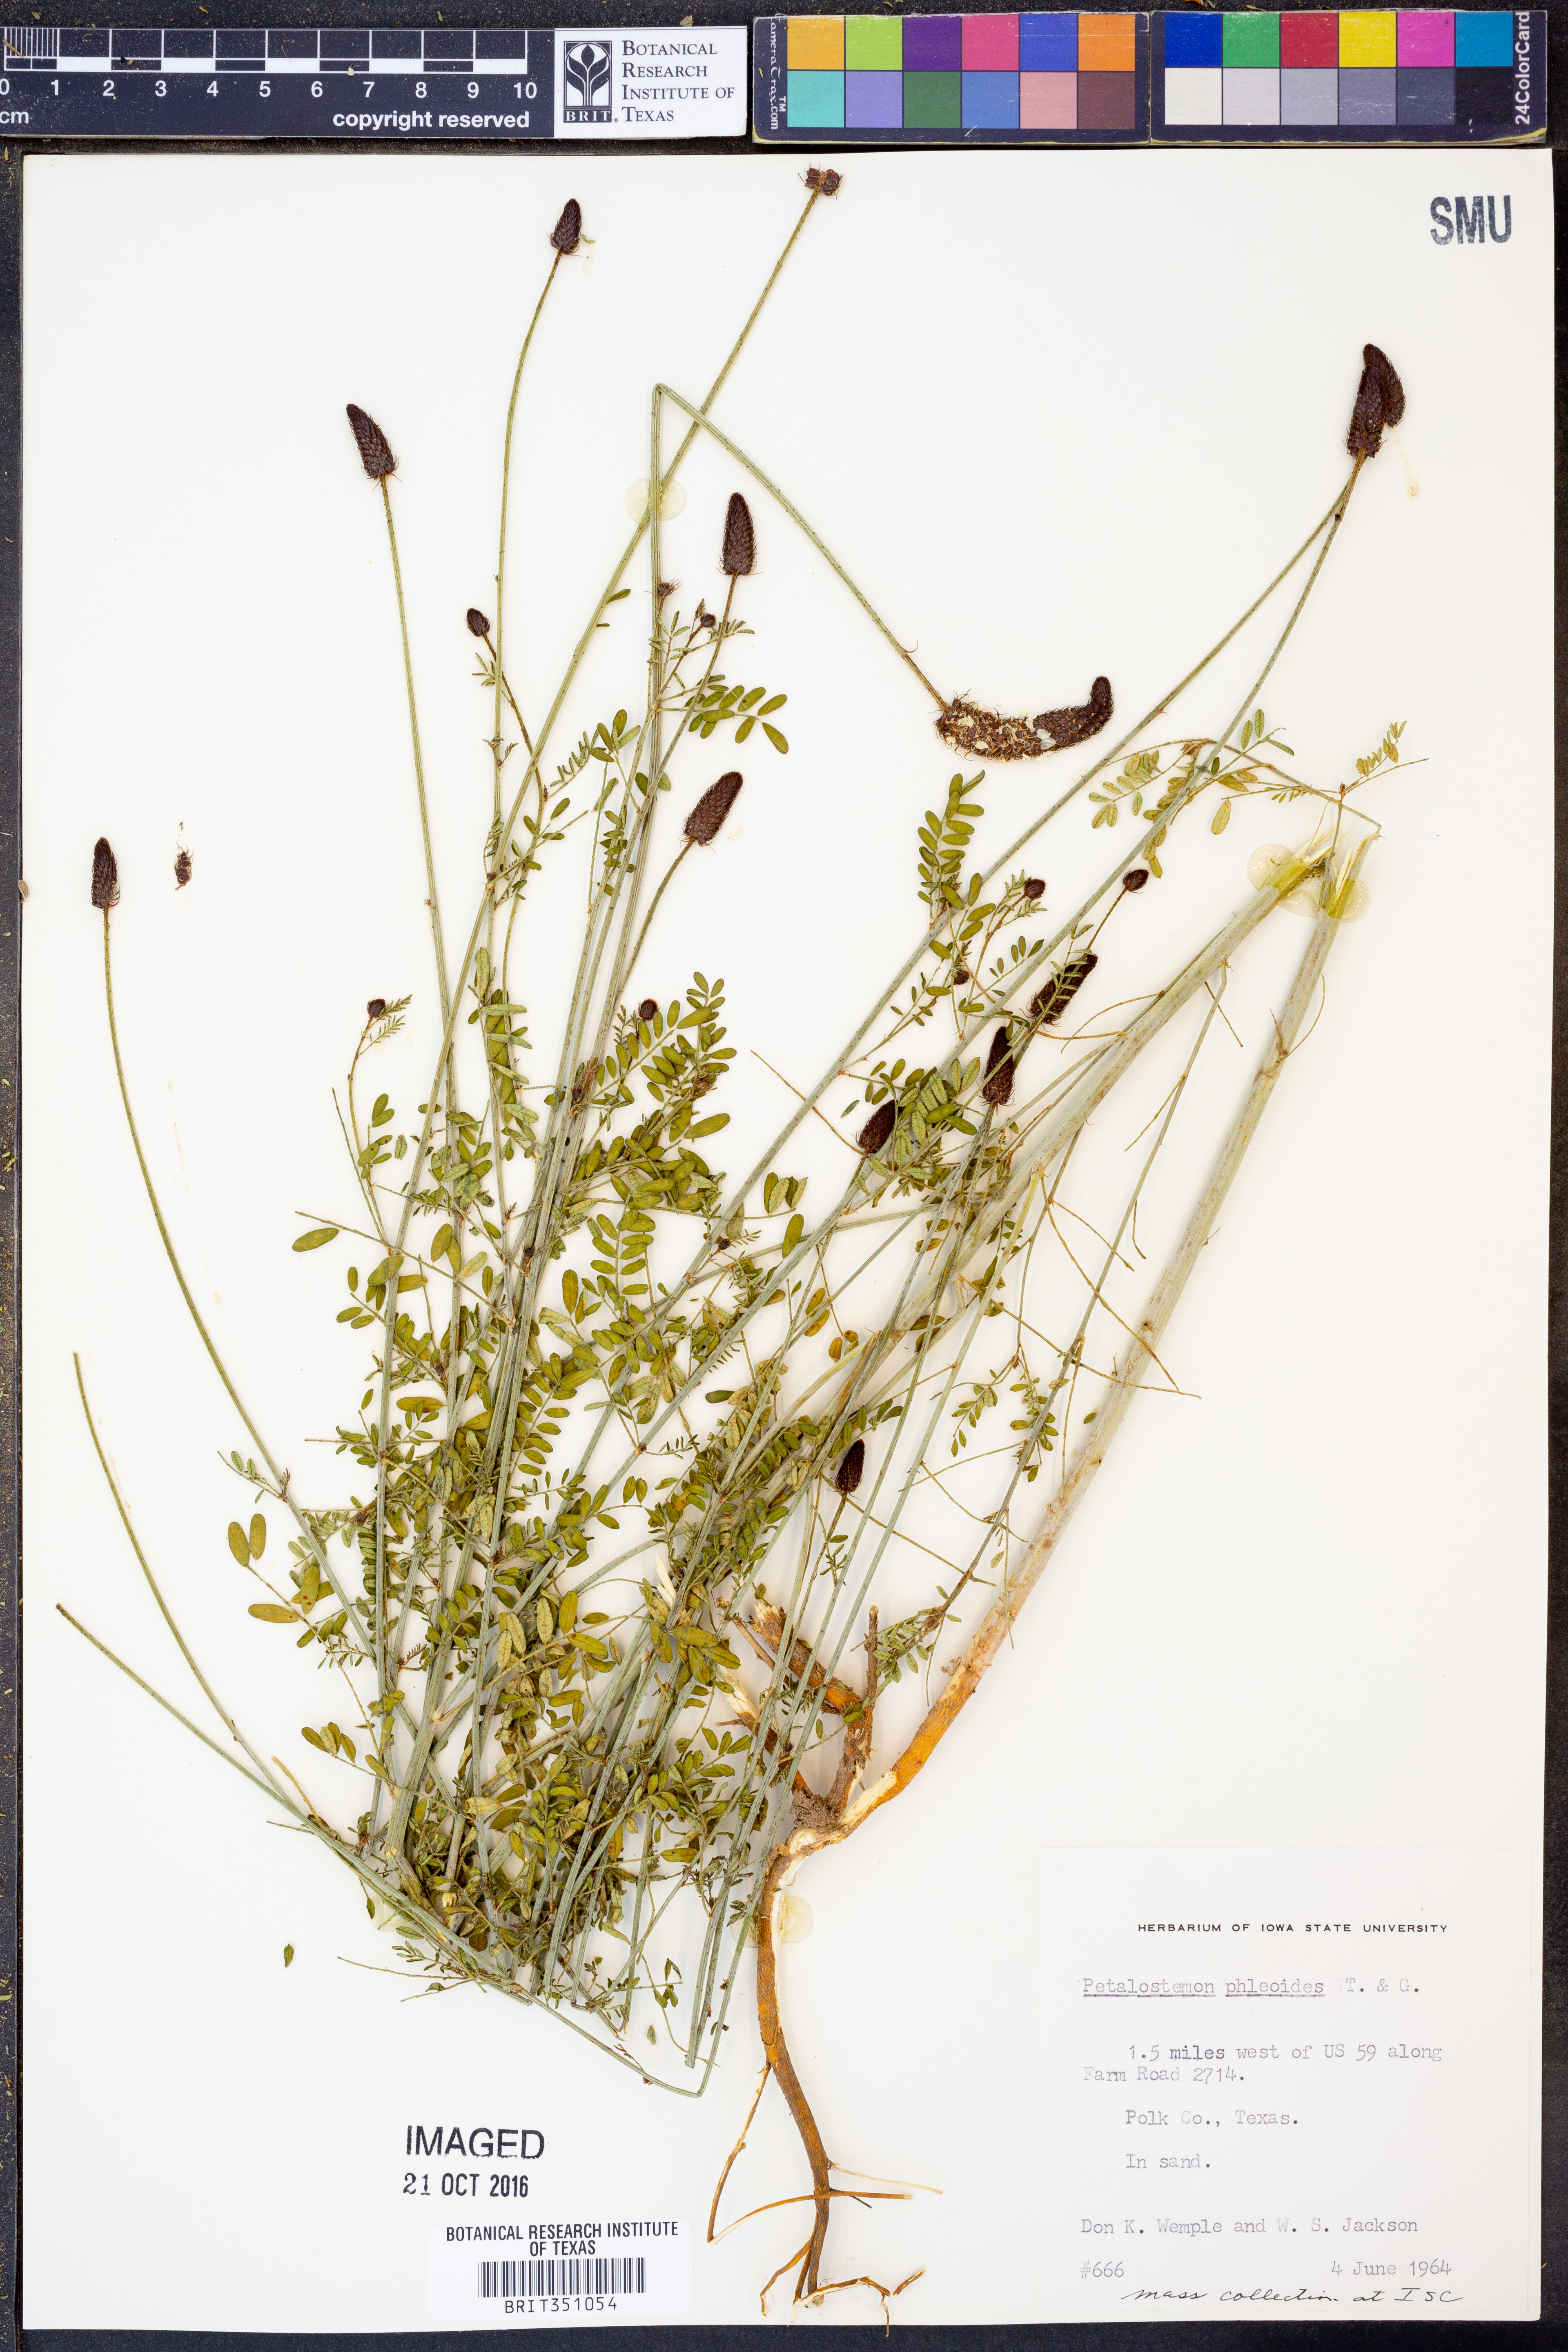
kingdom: Plantae
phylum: Tracheophyta
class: Magnoliopsida
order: Fabales
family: Fabaceae
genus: Dalea
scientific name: Dalea phleoides
